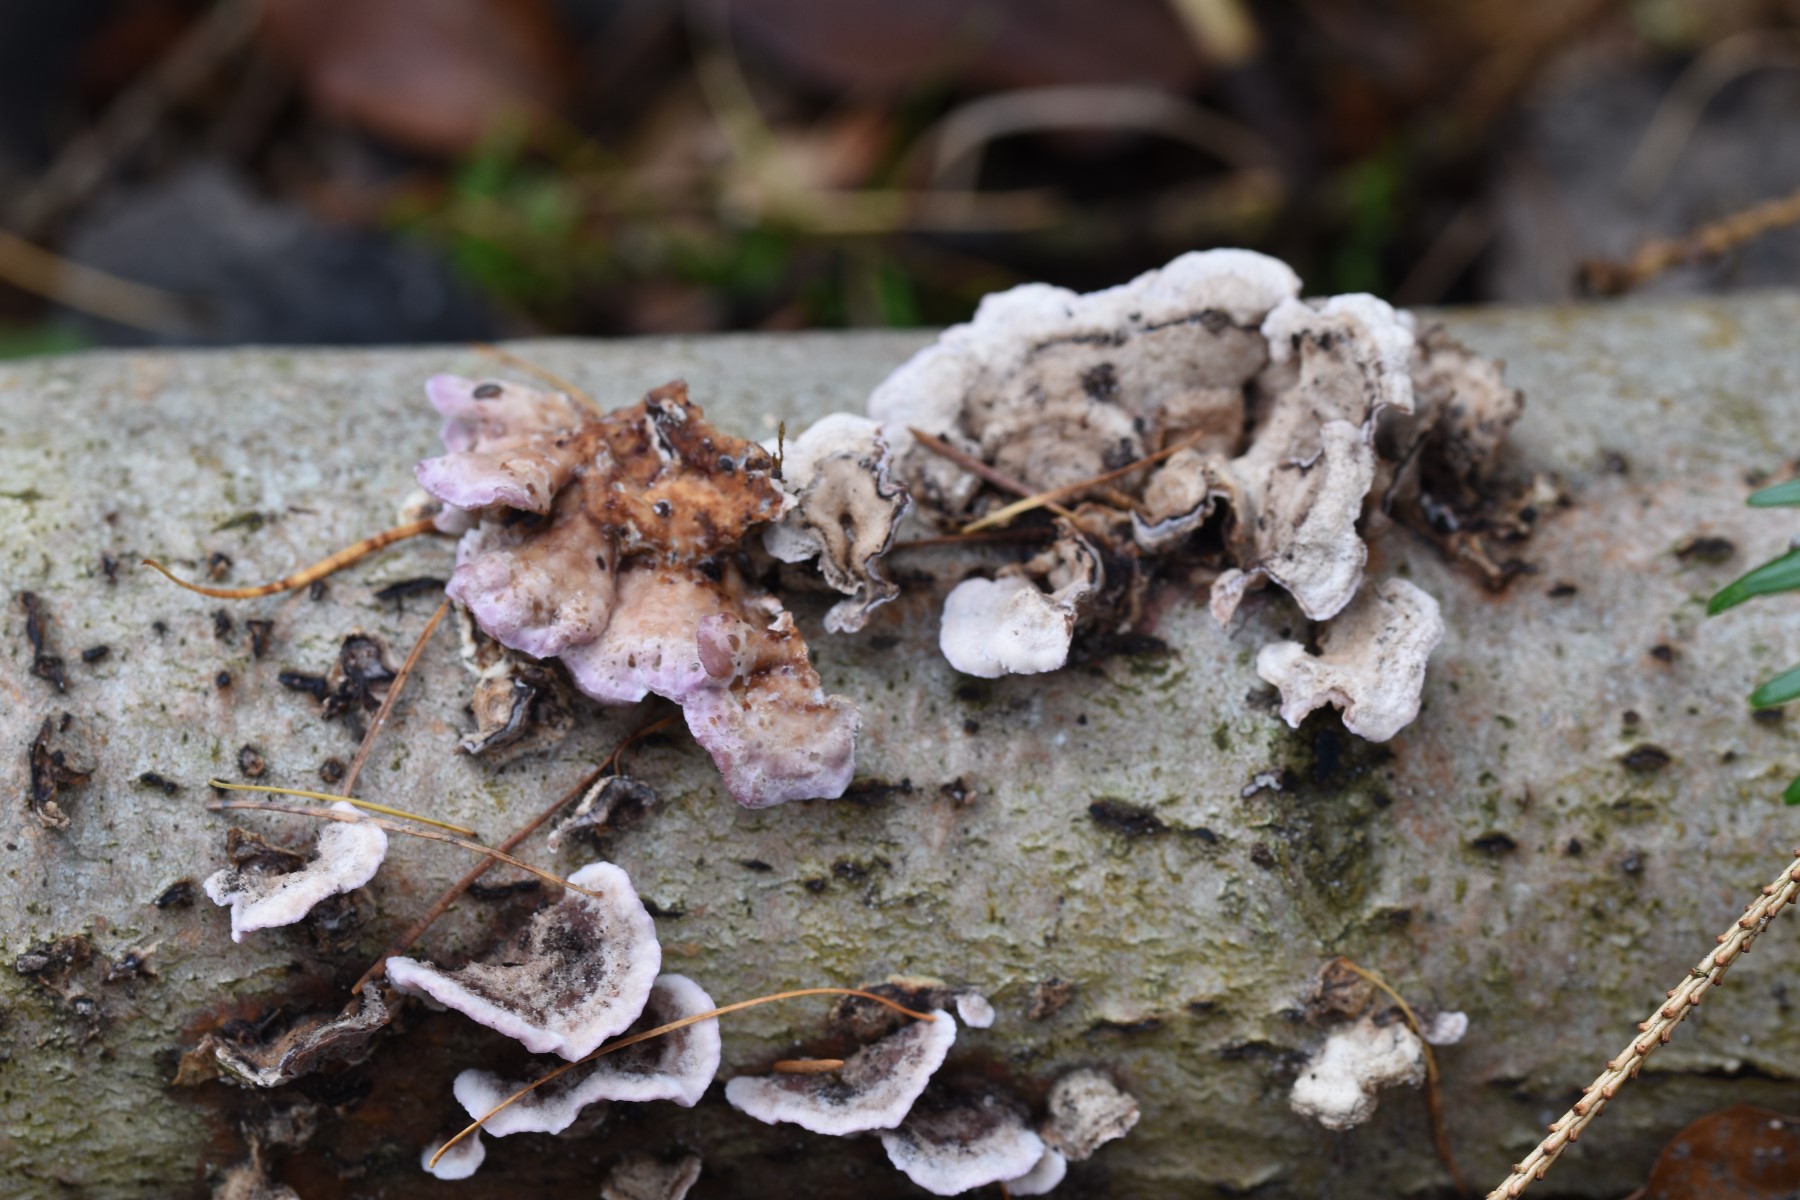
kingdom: Fungi
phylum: Basidiomycota
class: Agaricomycetes
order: Agaricales
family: Cyphellaceae
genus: Chondrostereum
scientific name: Chondrostereum purpureum
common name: purpurlædersvamp
